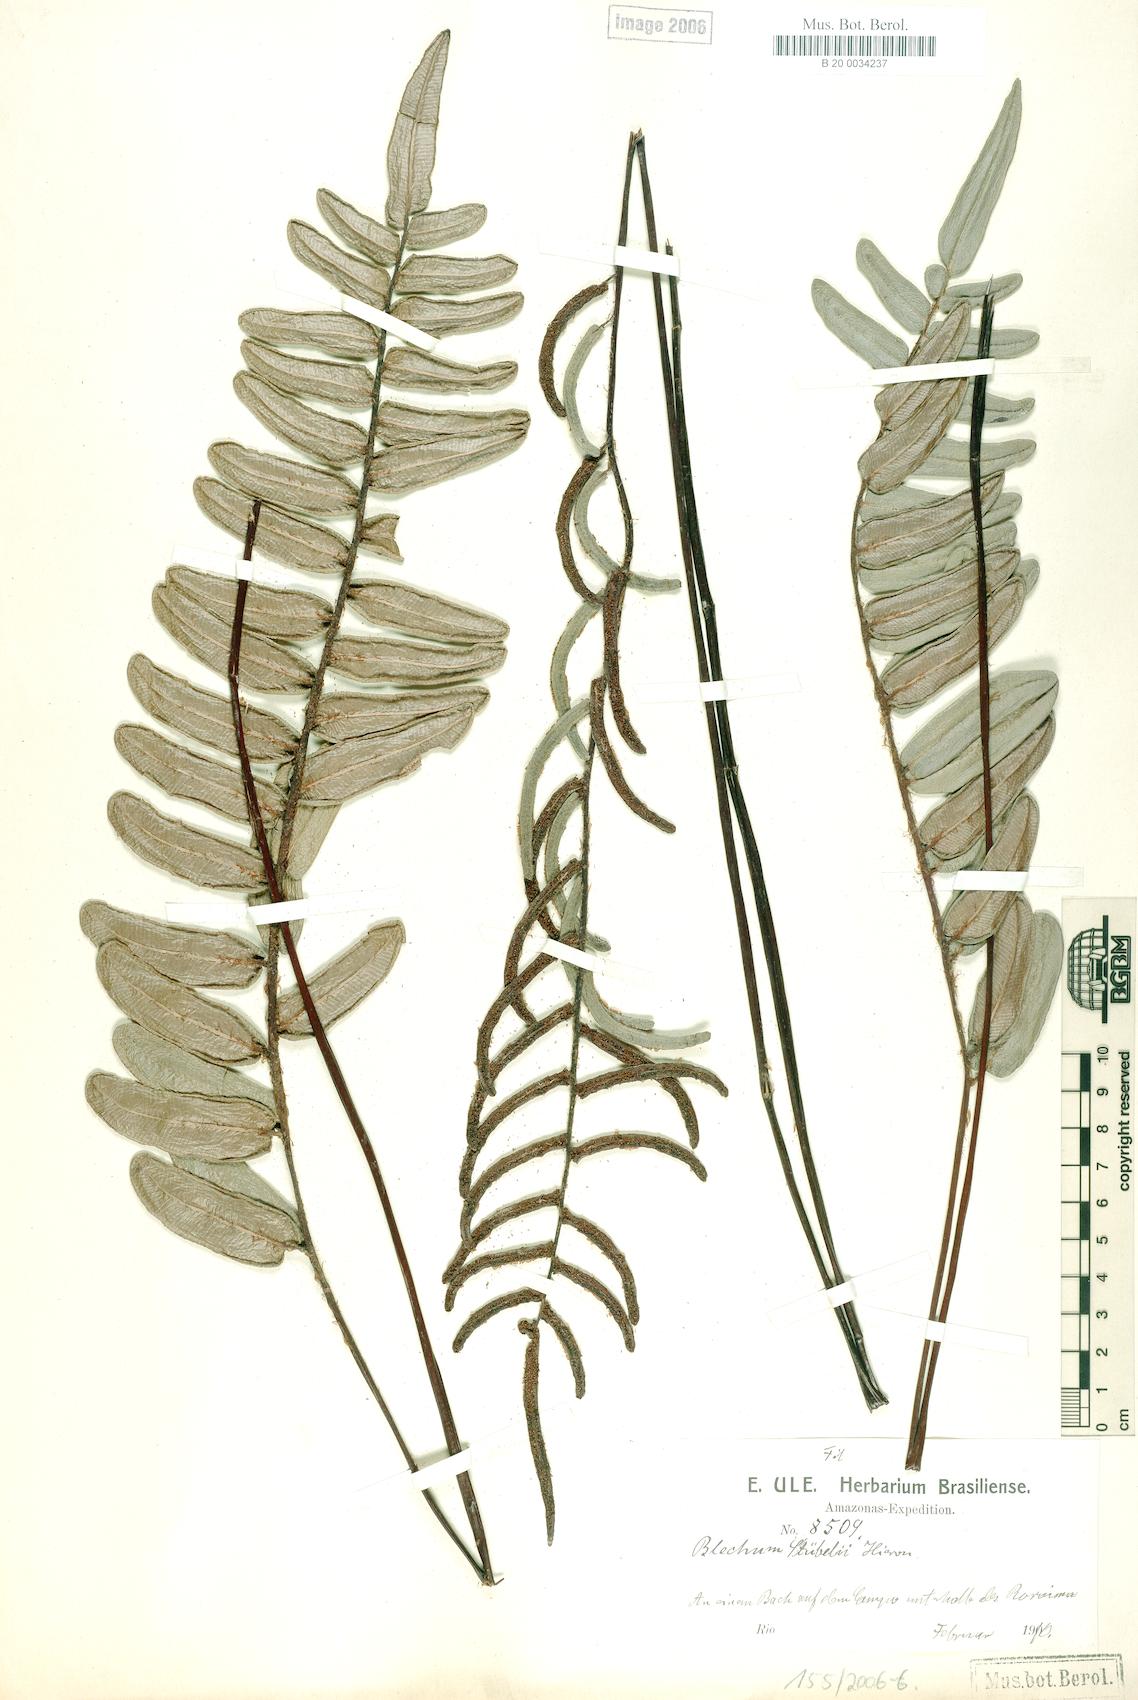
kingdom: Plantae
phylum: Tracheophyta
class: Polypodiopsida
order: Polypodiales
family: Blechnaceae
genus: Parablechnum
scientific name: Parablechnum
